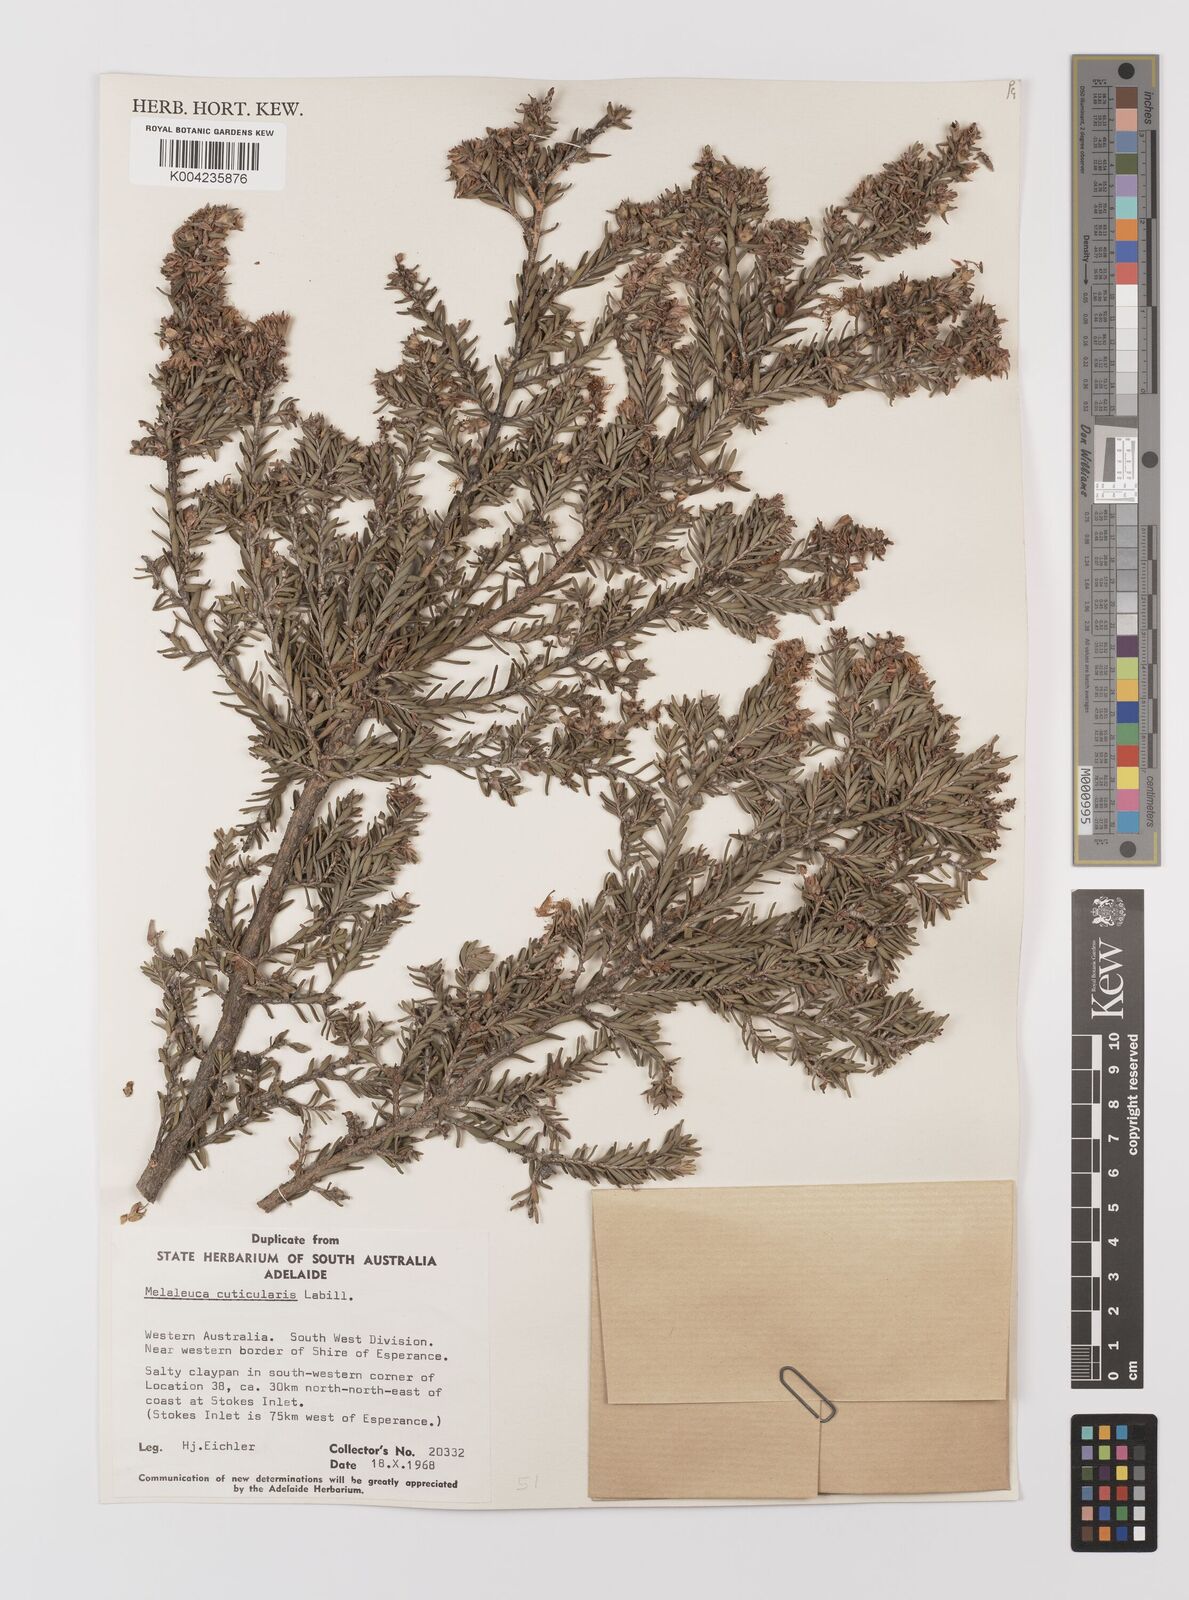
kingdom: Plantae
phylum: Tracheophyta
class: Magnoliopsida
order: Myrtales
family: Myrtaceae
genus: Melaleuca
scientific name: Melaleuca cuticularis
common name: Saltwater paperbark
